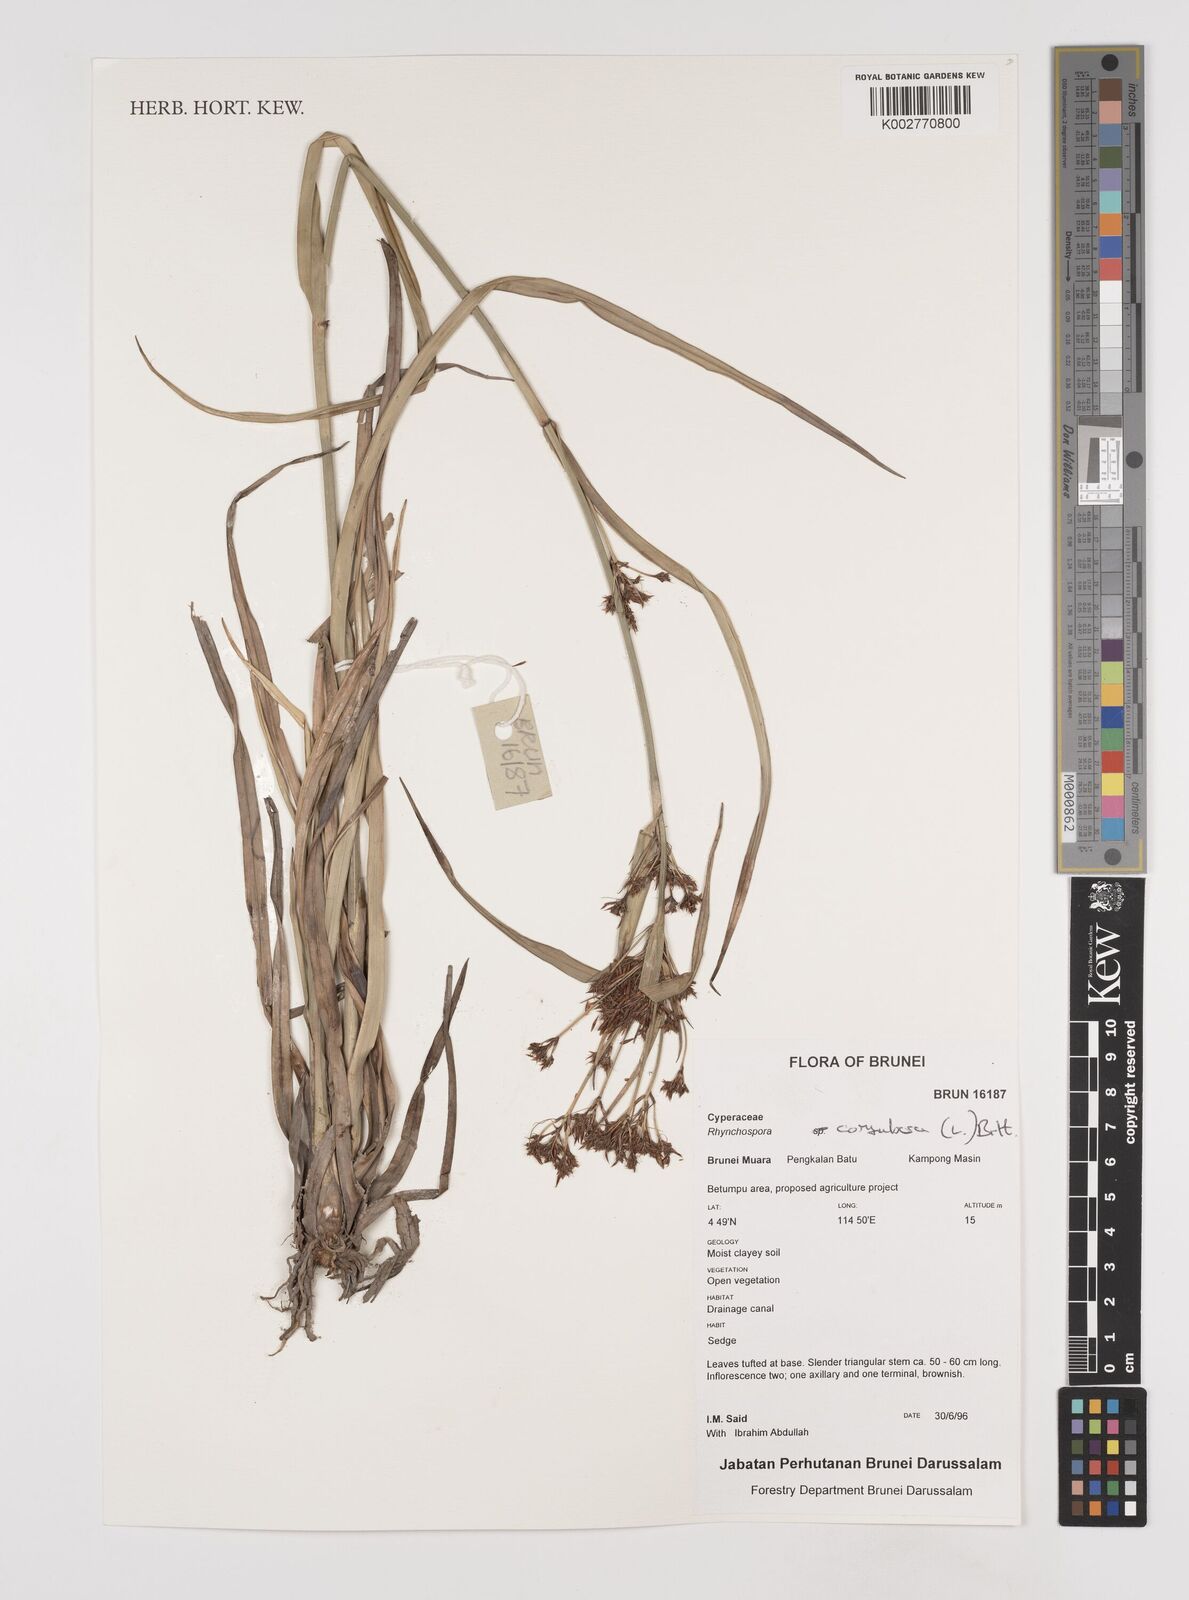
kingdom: Plantae
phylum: Tracheophyta
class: Liliopsida
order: Poales
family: Cyperaceae
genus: Rhynchospora
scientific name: Rhynchospora corymbosa
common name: Golden beak sedge
